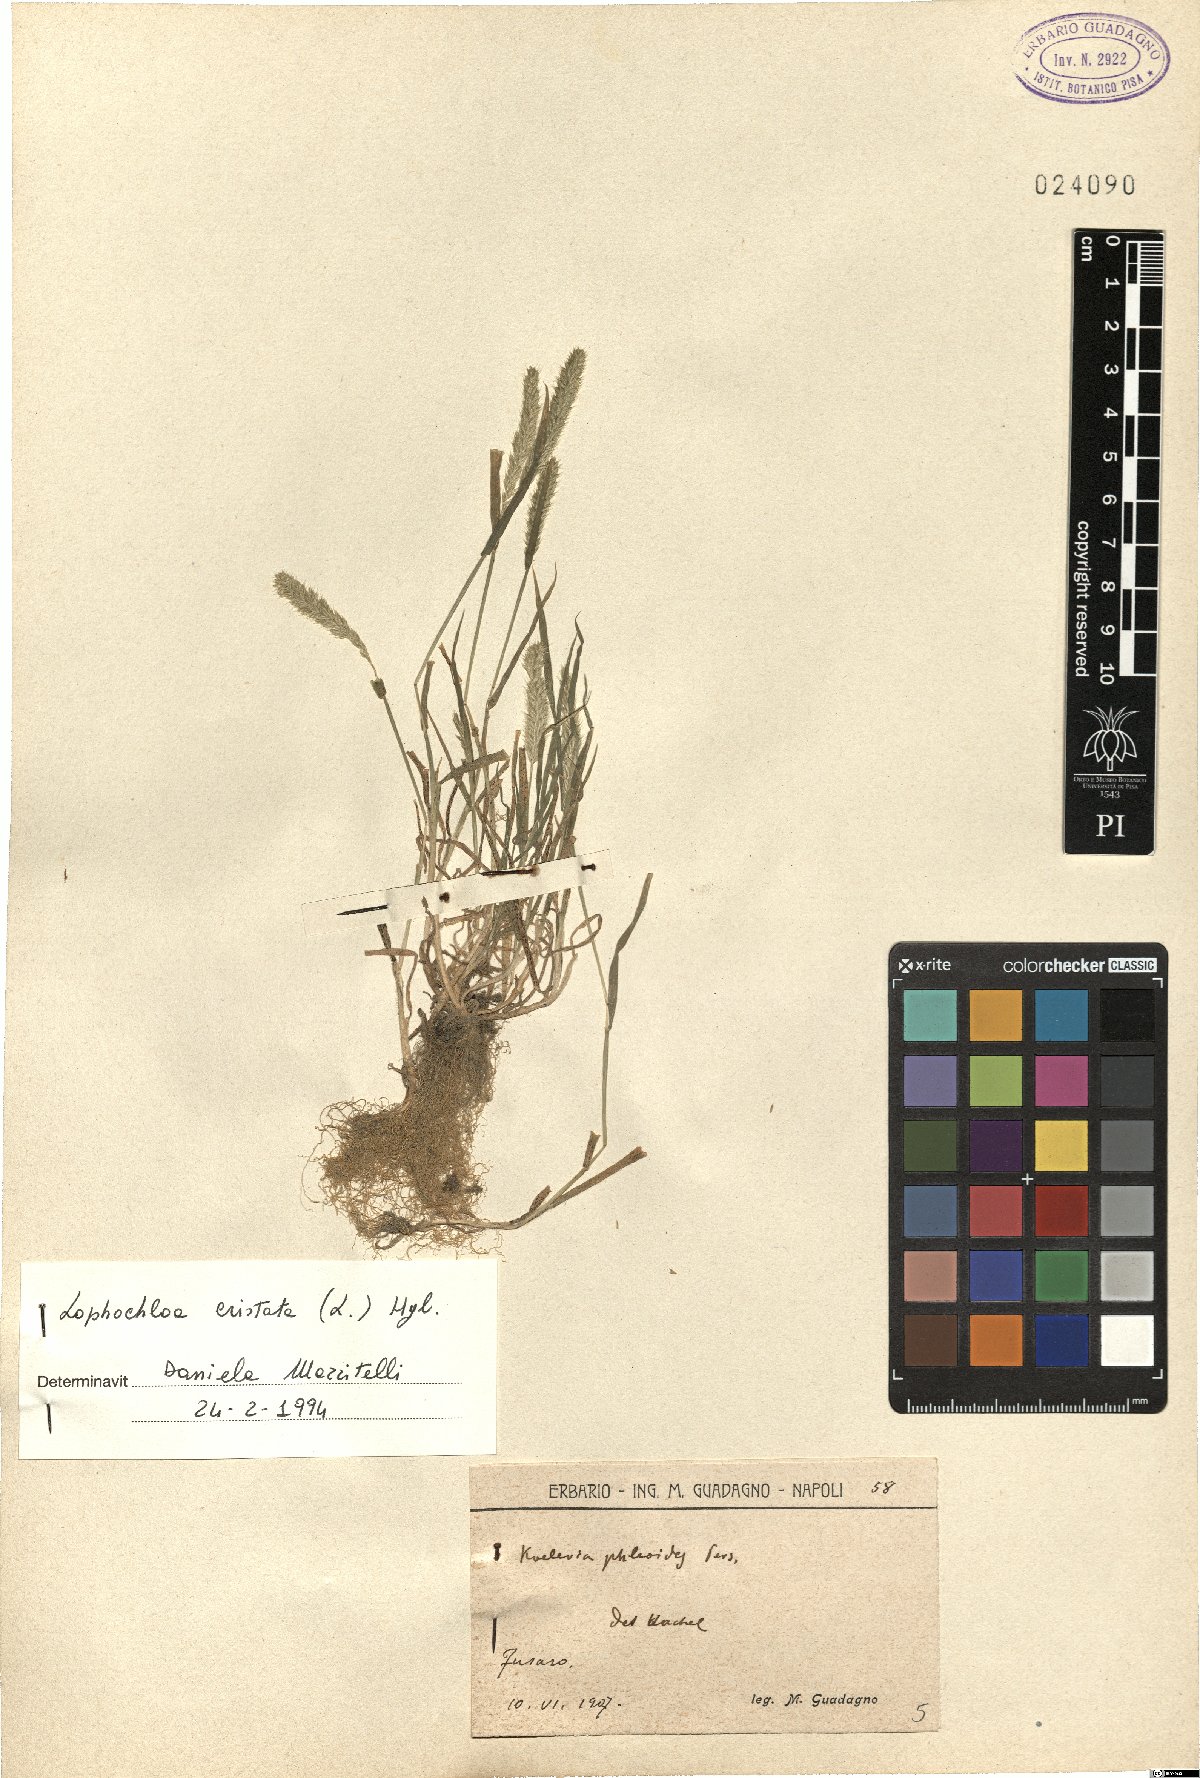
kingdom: Plantae
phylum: Tracheophyta
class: Liliopsida
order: Poales
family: Poaceae
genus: Rostraria
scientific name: Rostraria cristata
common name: Mediterranean hair-grass
